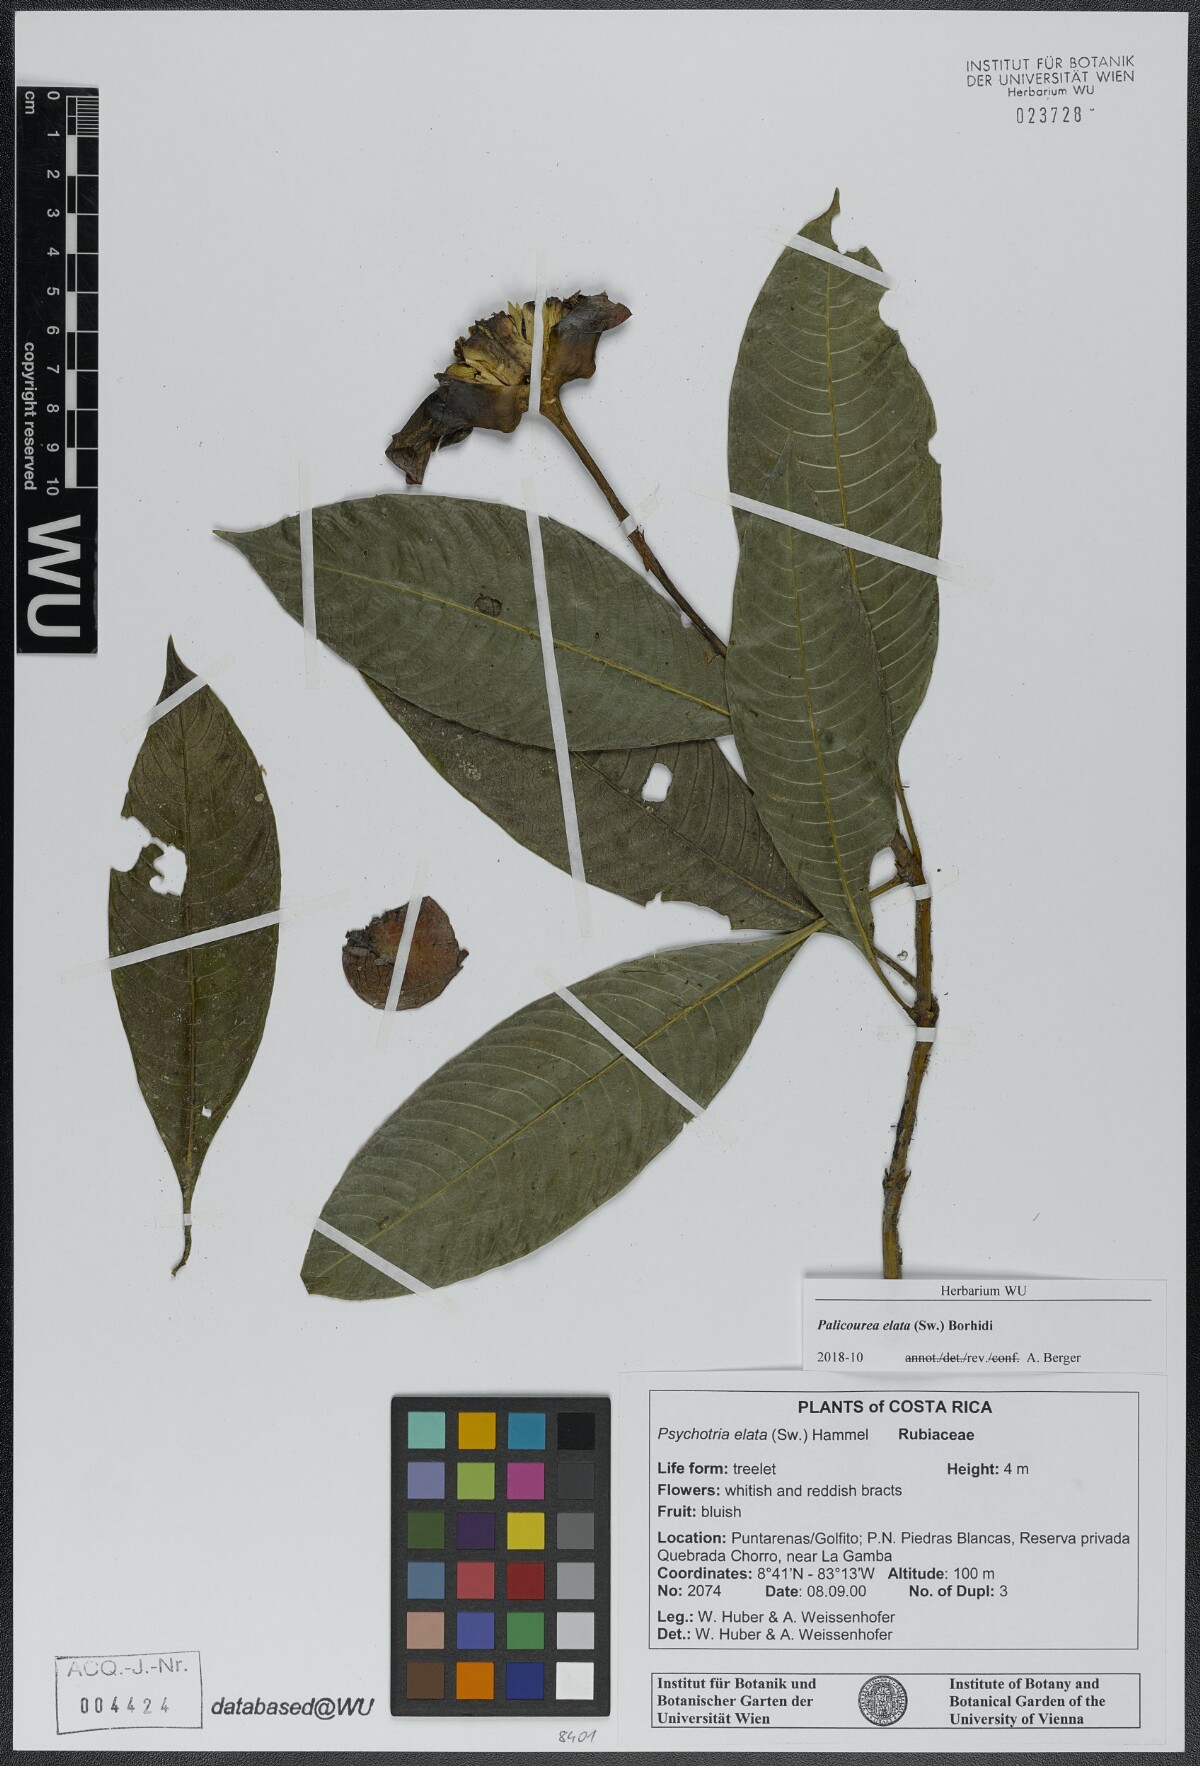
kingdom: Plantae
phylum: Tracheophyta
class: Magnoliopsida
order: Gentianales
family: Rubiaceae
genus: Palicourea
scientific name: Palicourea elata
